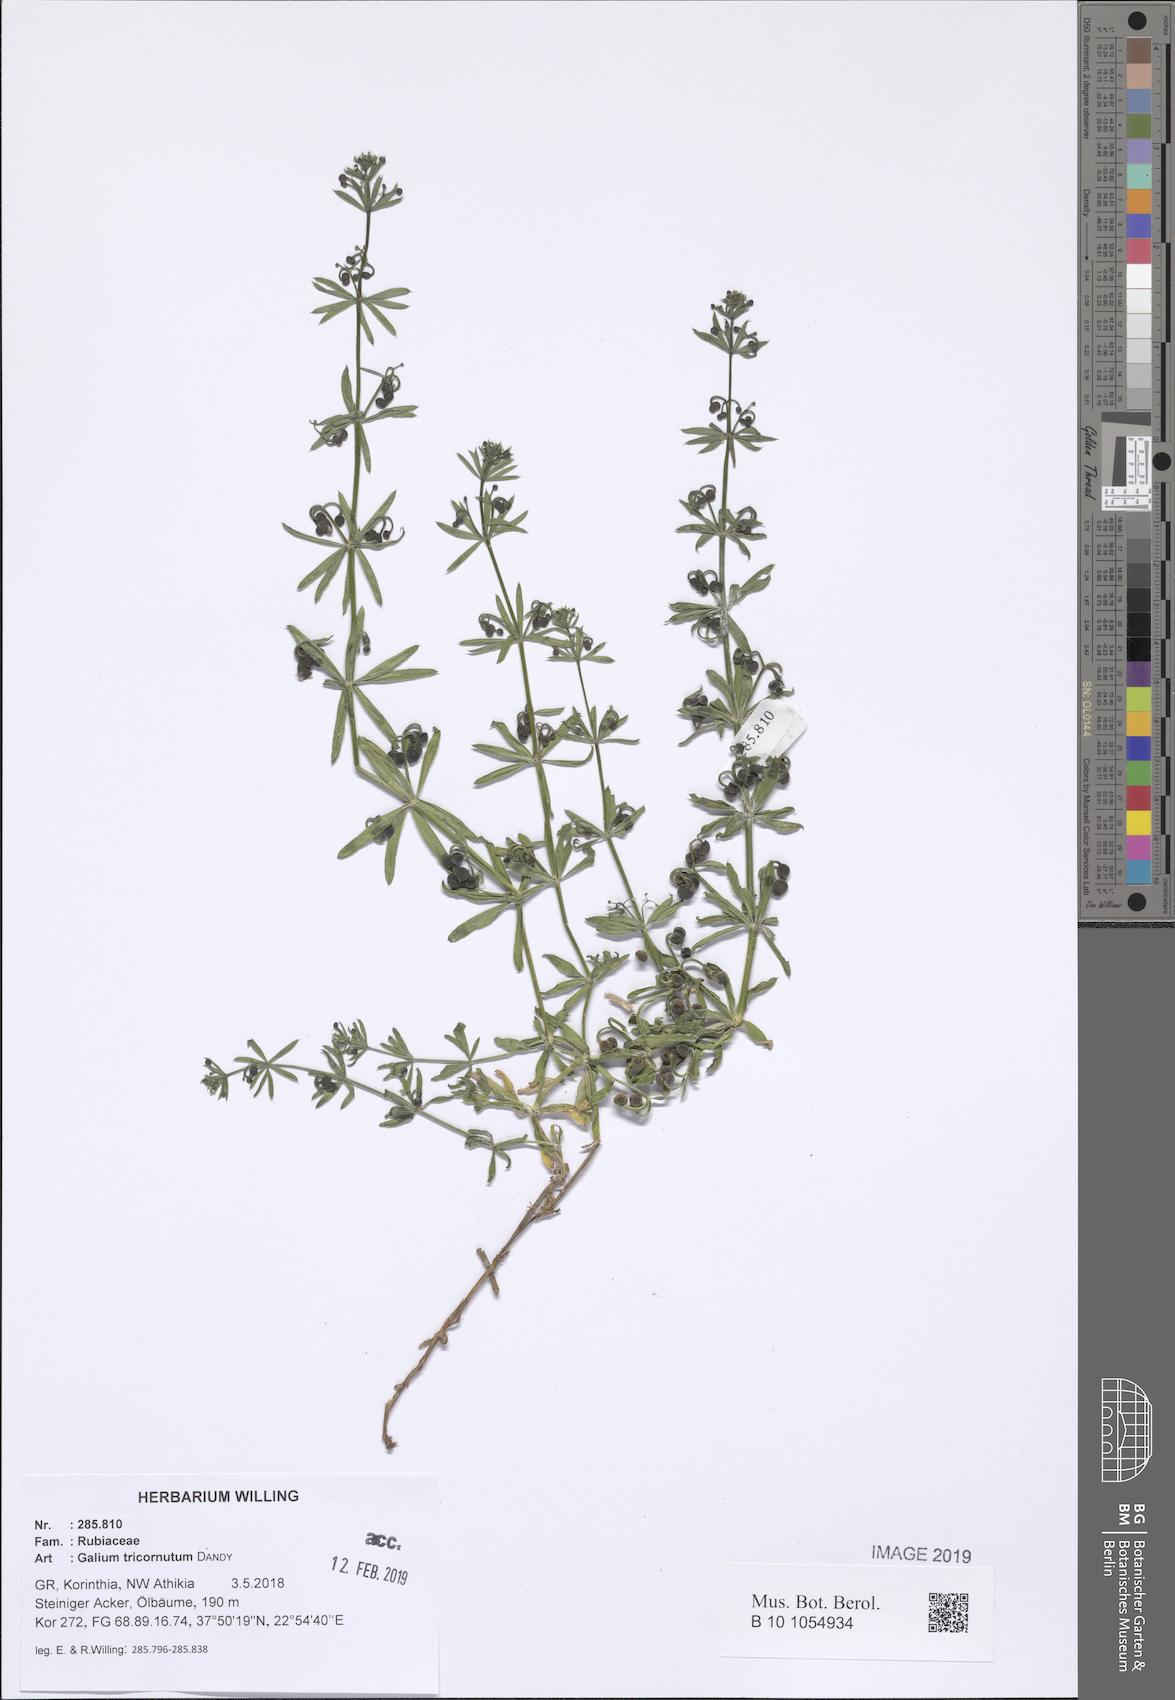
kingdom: Plantae
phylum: Tracheophyta
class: Magnoliopsida
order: Gentianales
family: Rubiaceae
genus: Galium
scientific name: Galium tricornutum
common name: Corn cleavers
